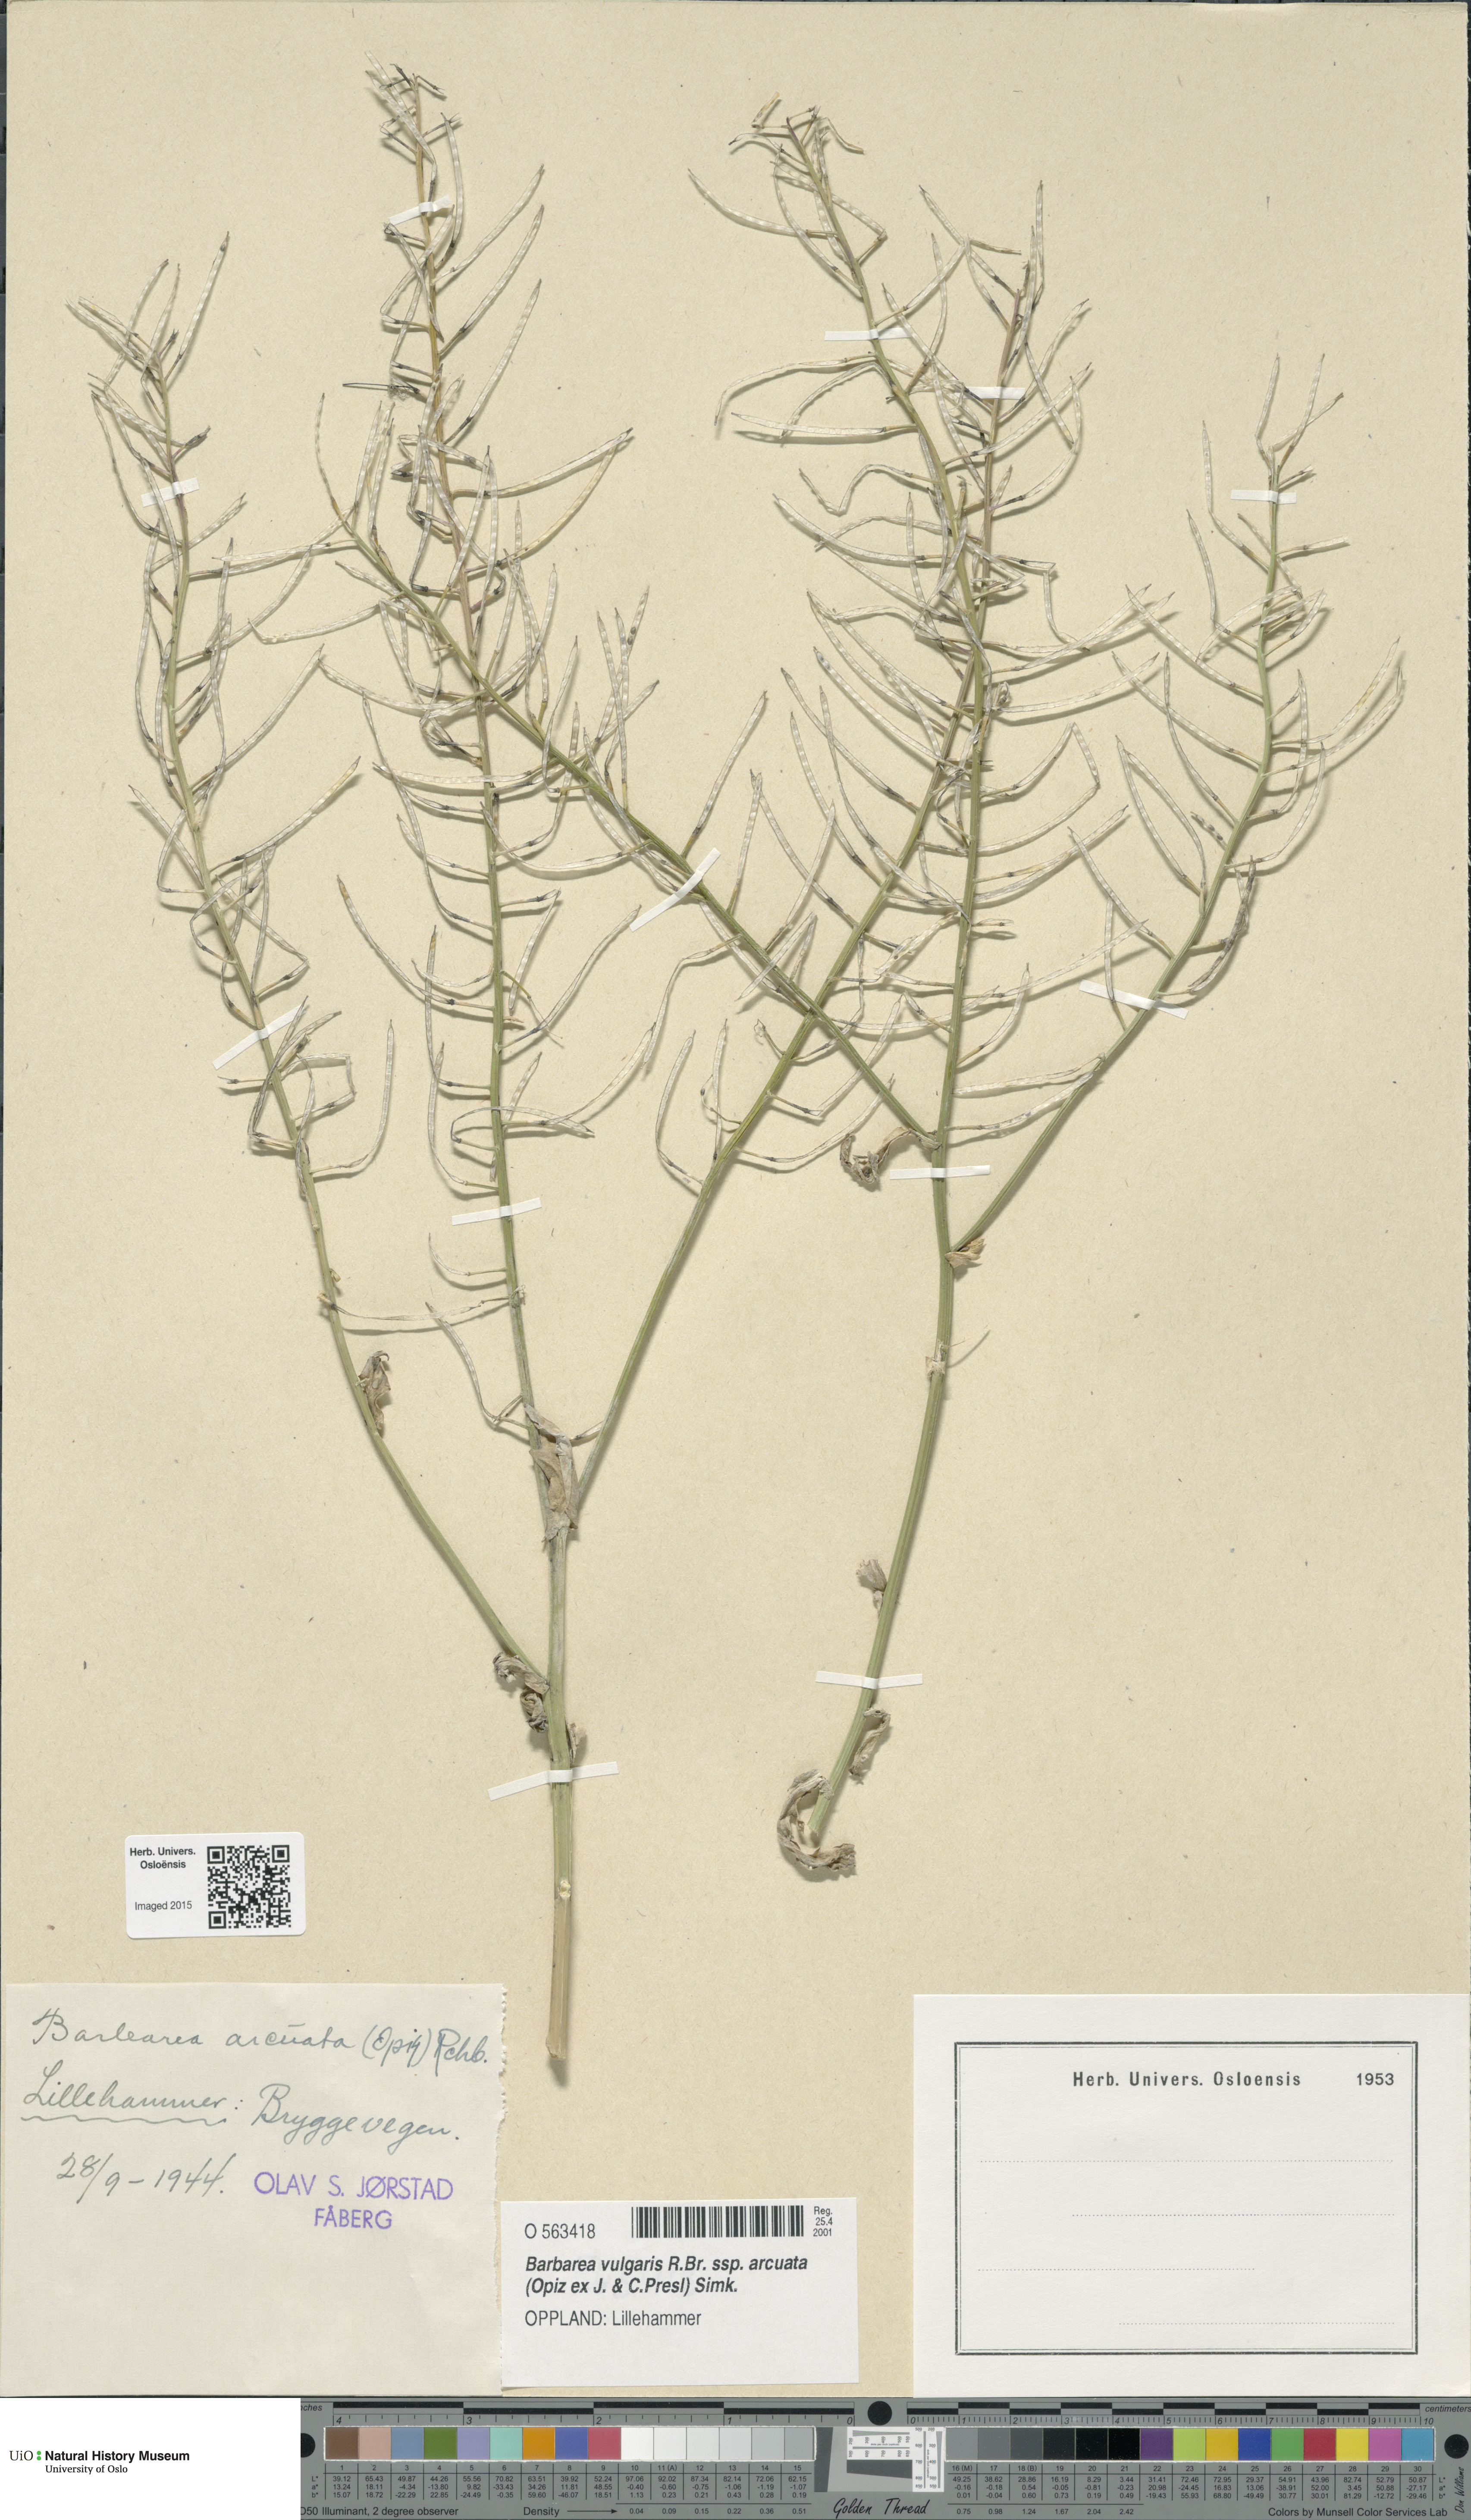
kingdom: Plantae
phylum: Tracheophyta
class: Magnoliopsida
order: Brassicales
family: Brassicaceae
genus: Barbarea
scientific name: Barbarea vulgaris
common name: Cressy-greens
